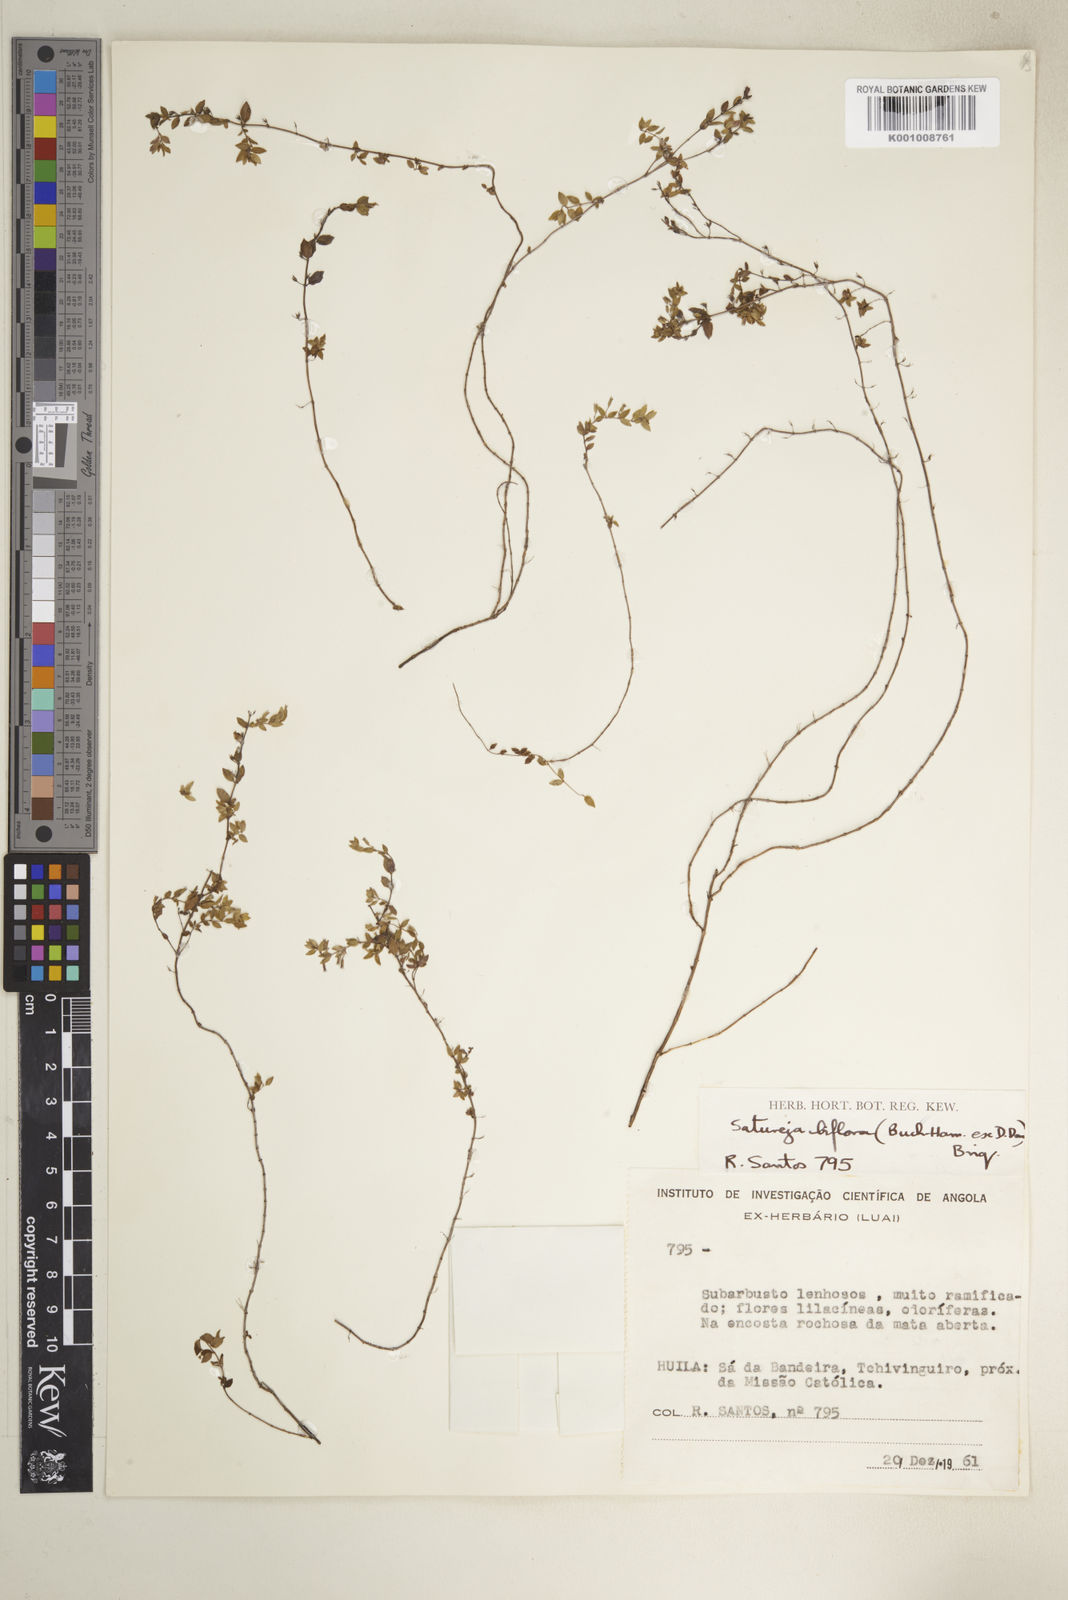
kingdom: Plantae
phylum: Tracheophyta
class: Magnoliopsida
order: Lamiales
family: Lamiaceae
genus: Micromeria
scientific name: Micromeria imbricata
